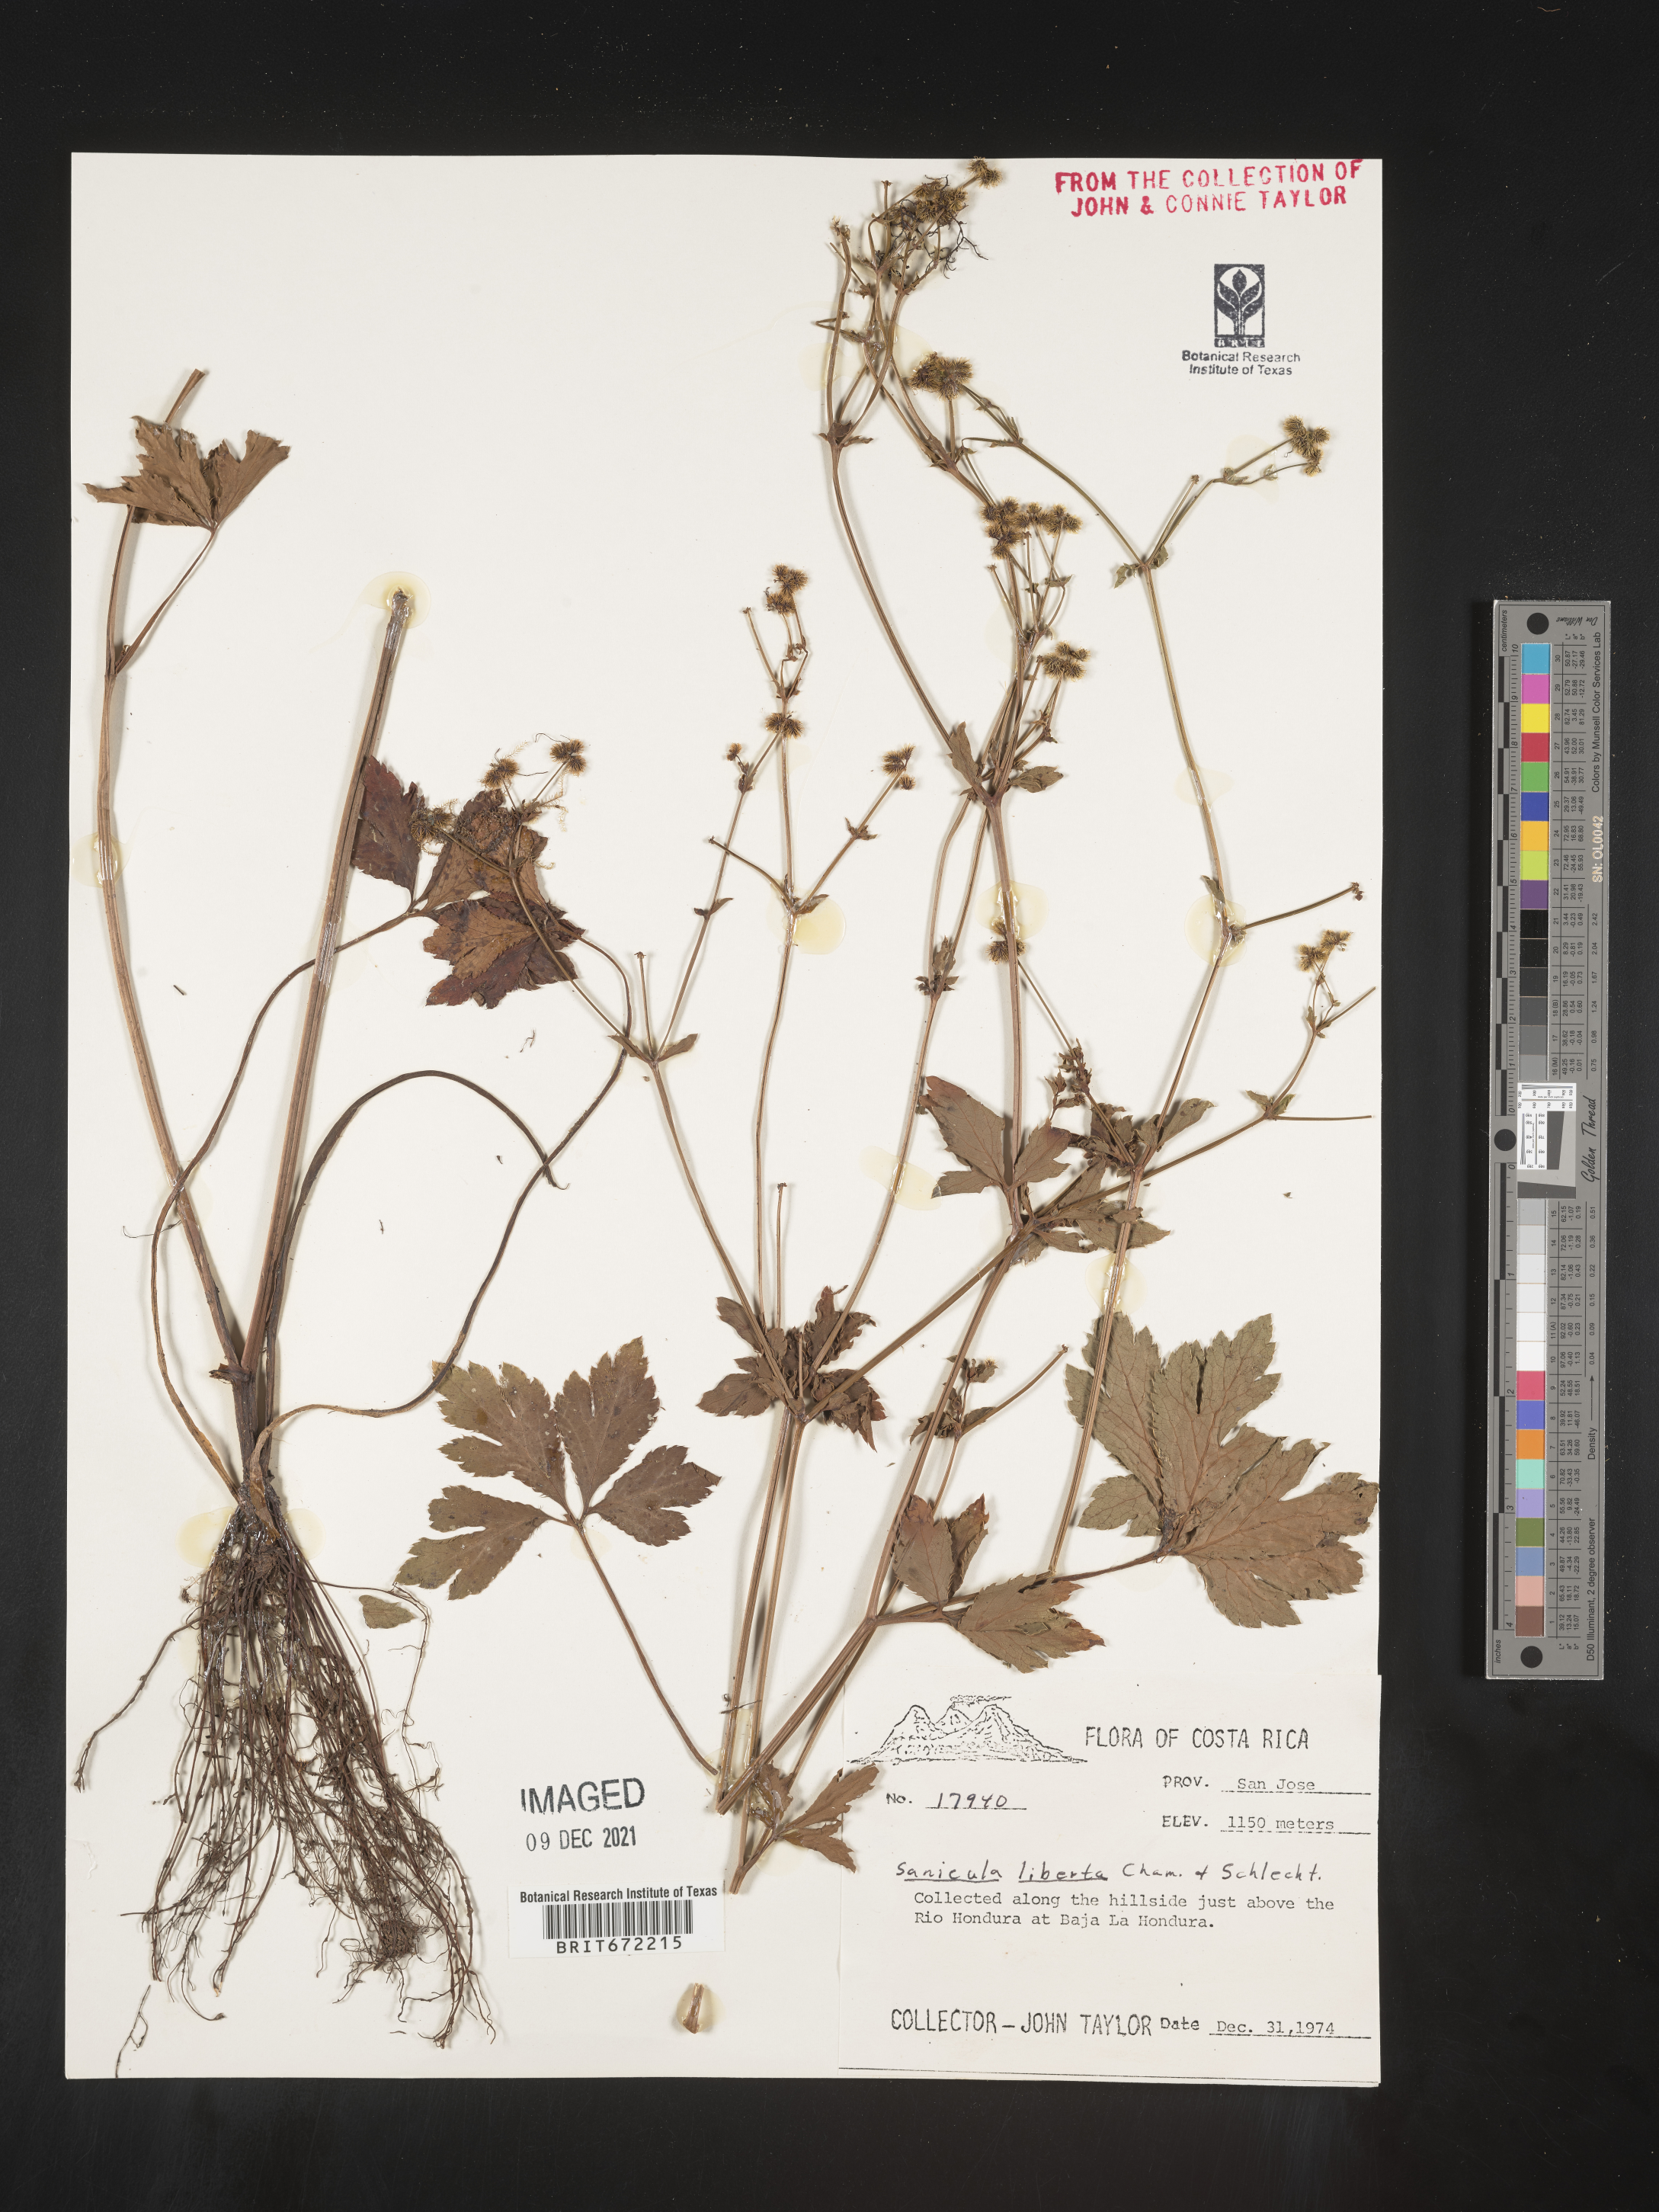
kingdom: Plantae
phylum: Tracheophyta
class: Magnoliopsida
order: Apiales
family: Apiaceae
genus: Sanicula
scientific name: Sanicula
